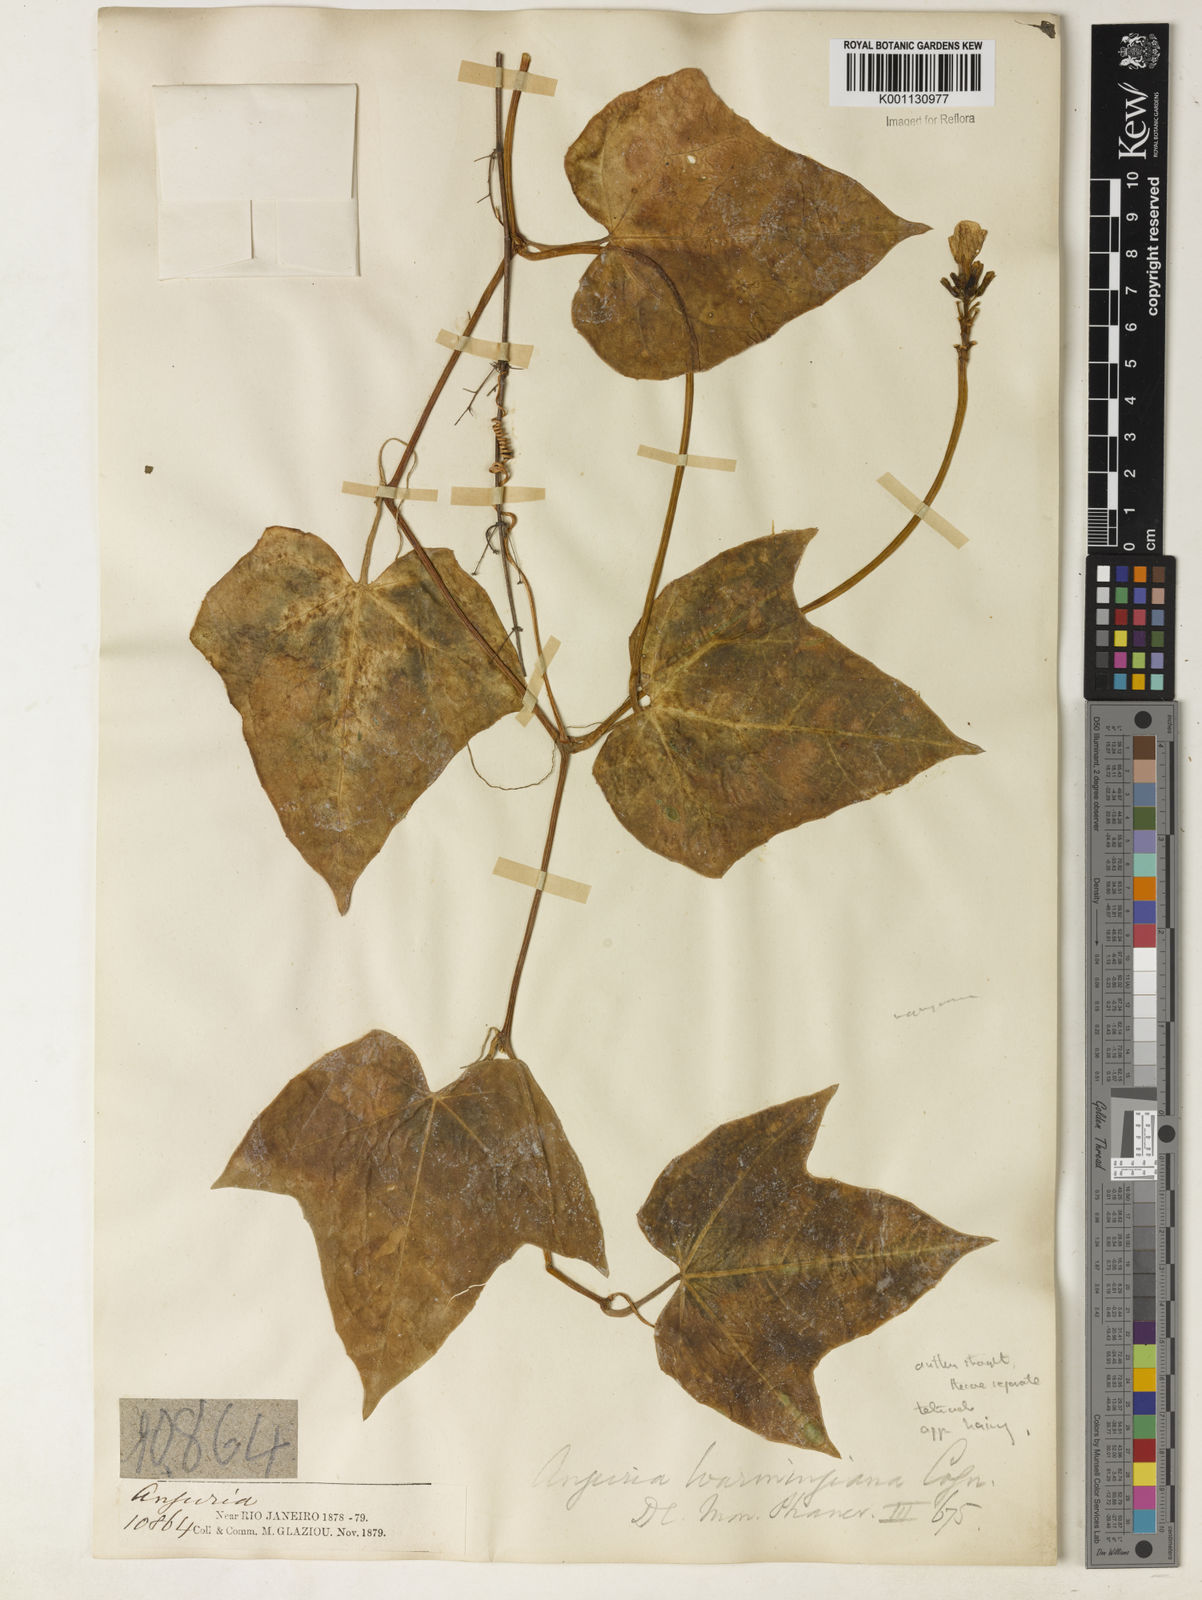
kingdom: Plantae
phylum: Tracheophyta
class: Magnoliopsida
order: Cucurbitales
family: Cucurbitaceae
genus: Psiguria
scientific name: Psiguria warmingiana
